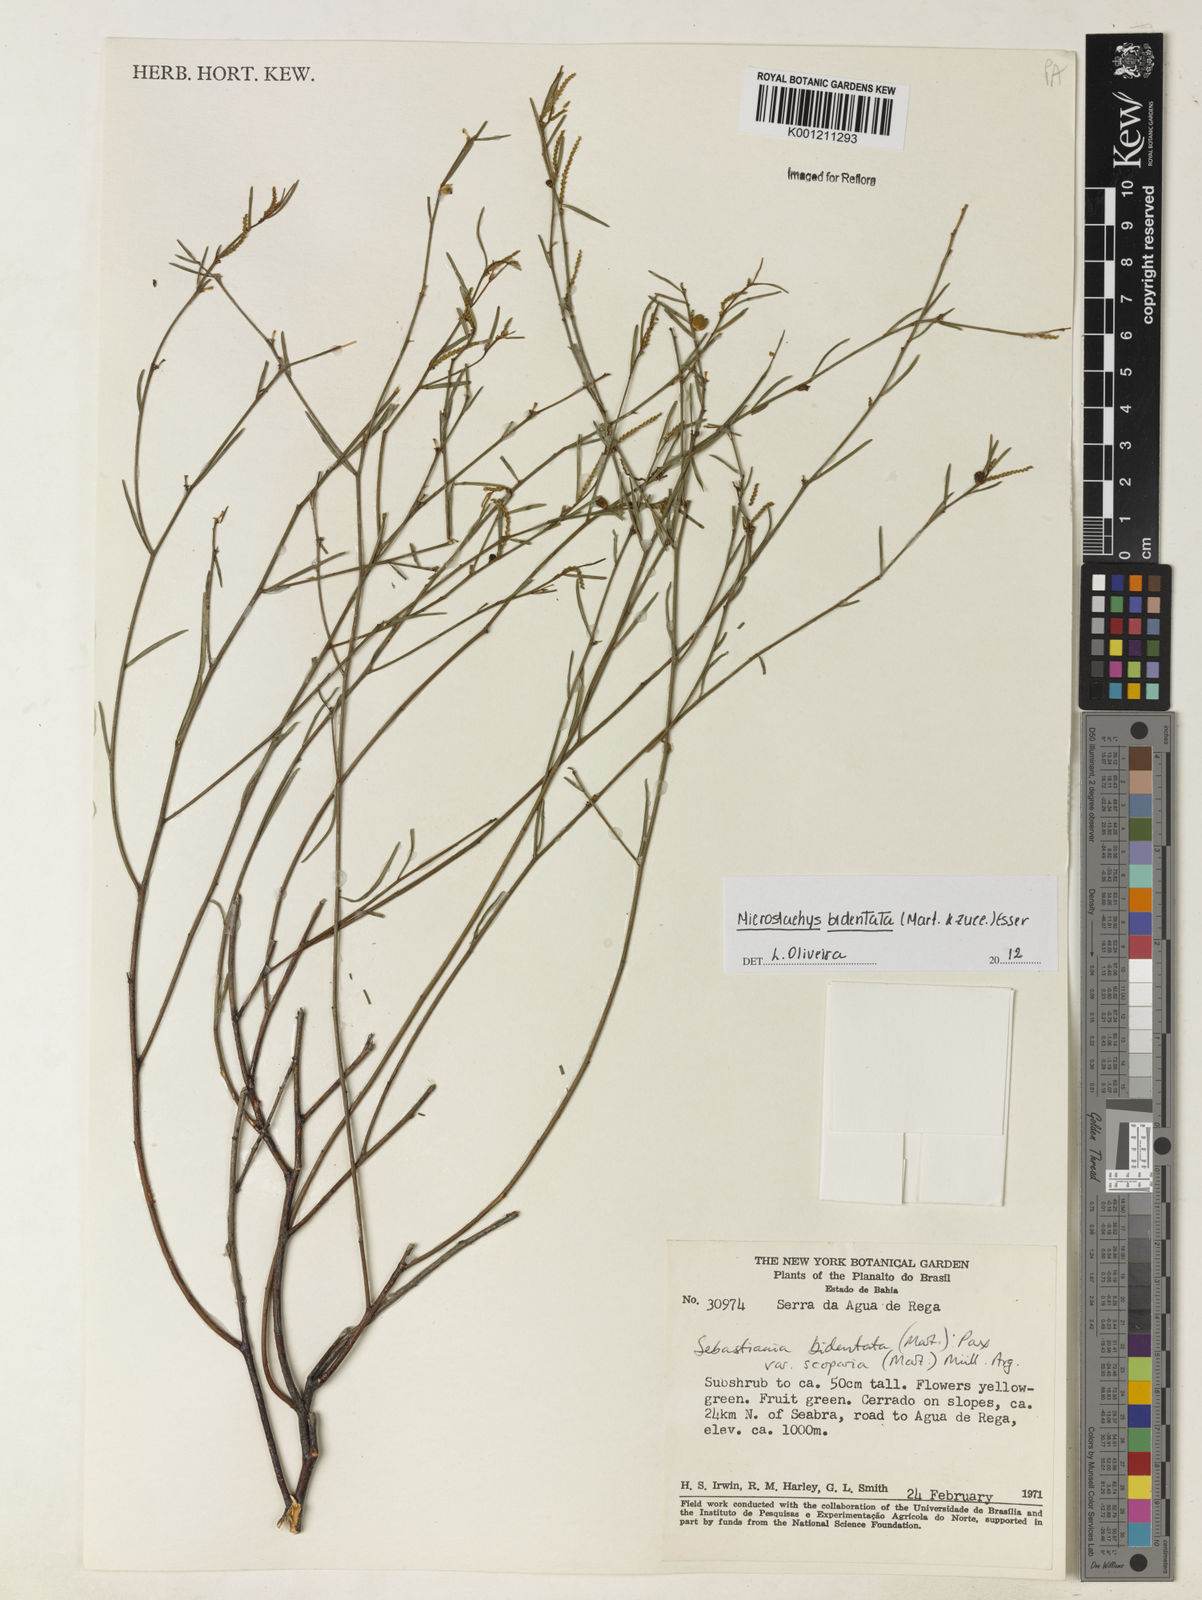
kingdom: Plantae
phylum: Tracheophyta
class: Magnoliopsida
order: Malpighiales
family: Euphorbiaceae
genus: Microstachys
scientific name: Microstachys bidentata
